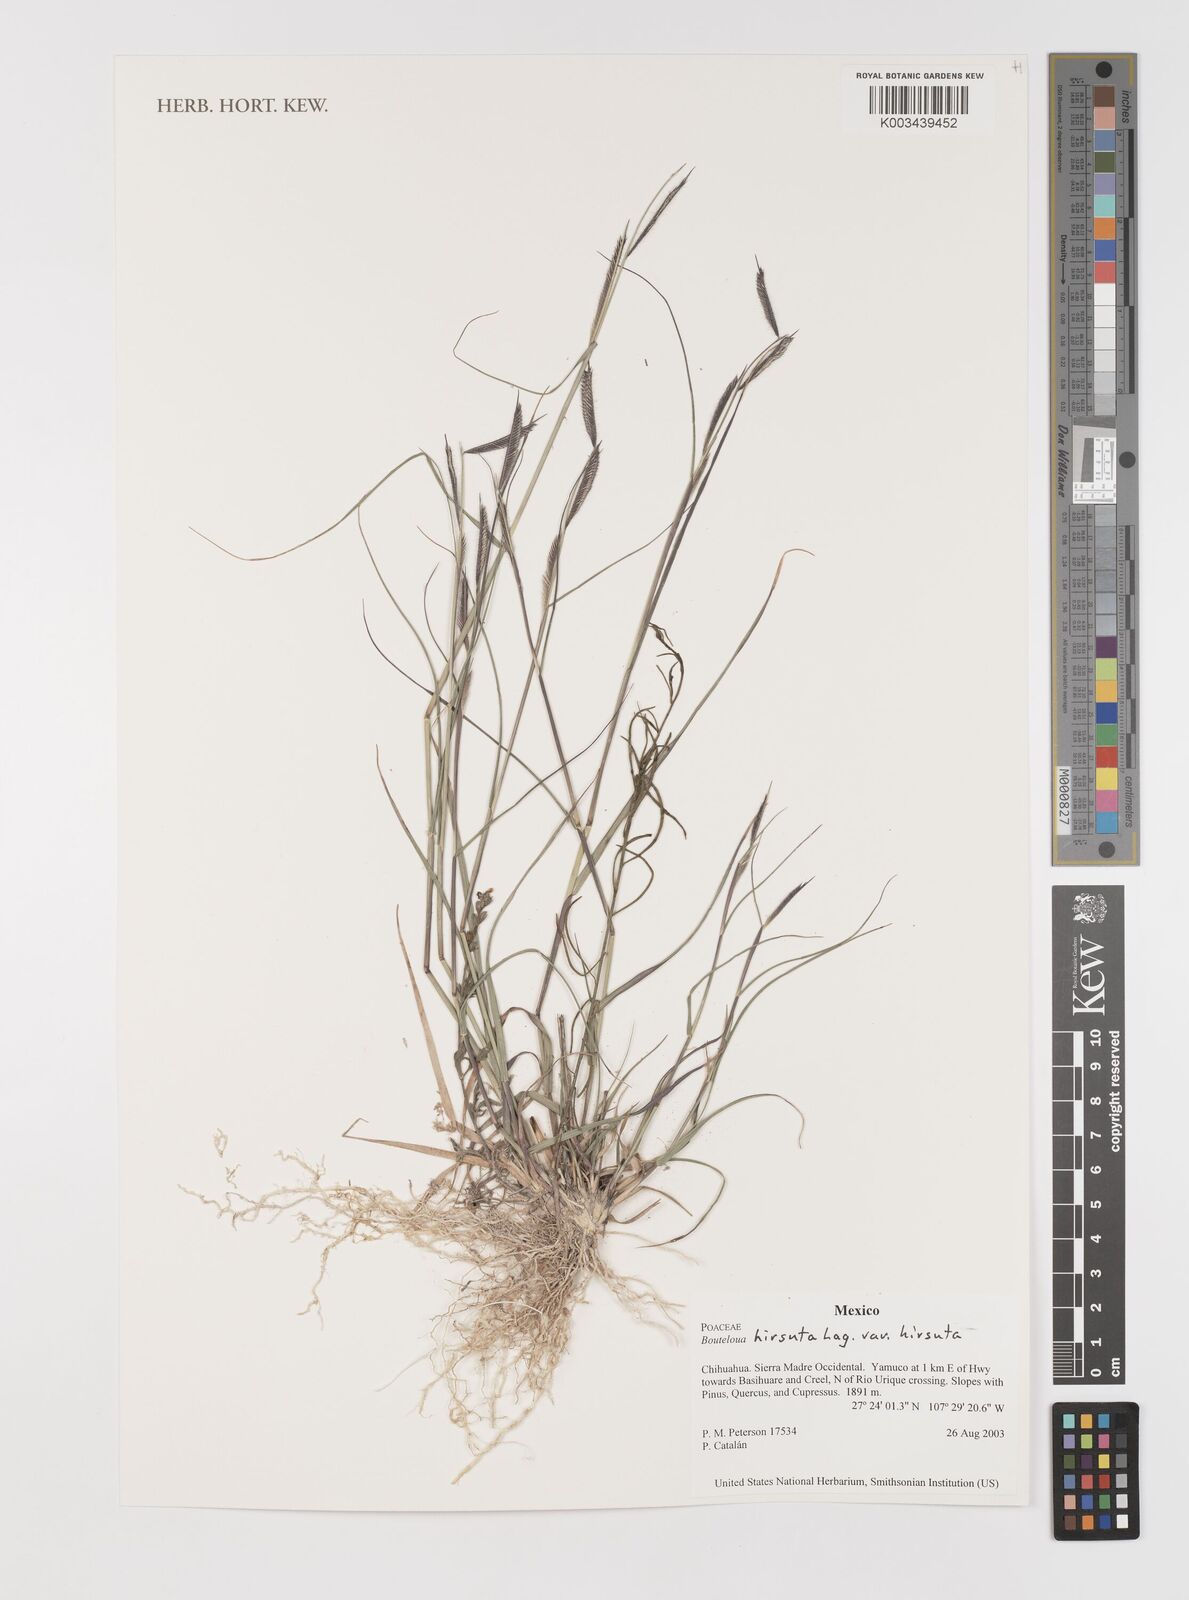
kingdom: Plantae
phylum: Tracheophyta
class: Liliopsida
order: Poales
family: Poaceae
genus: Bouteloua
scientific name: Bouteloua hirsuta
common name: Hairy grama
